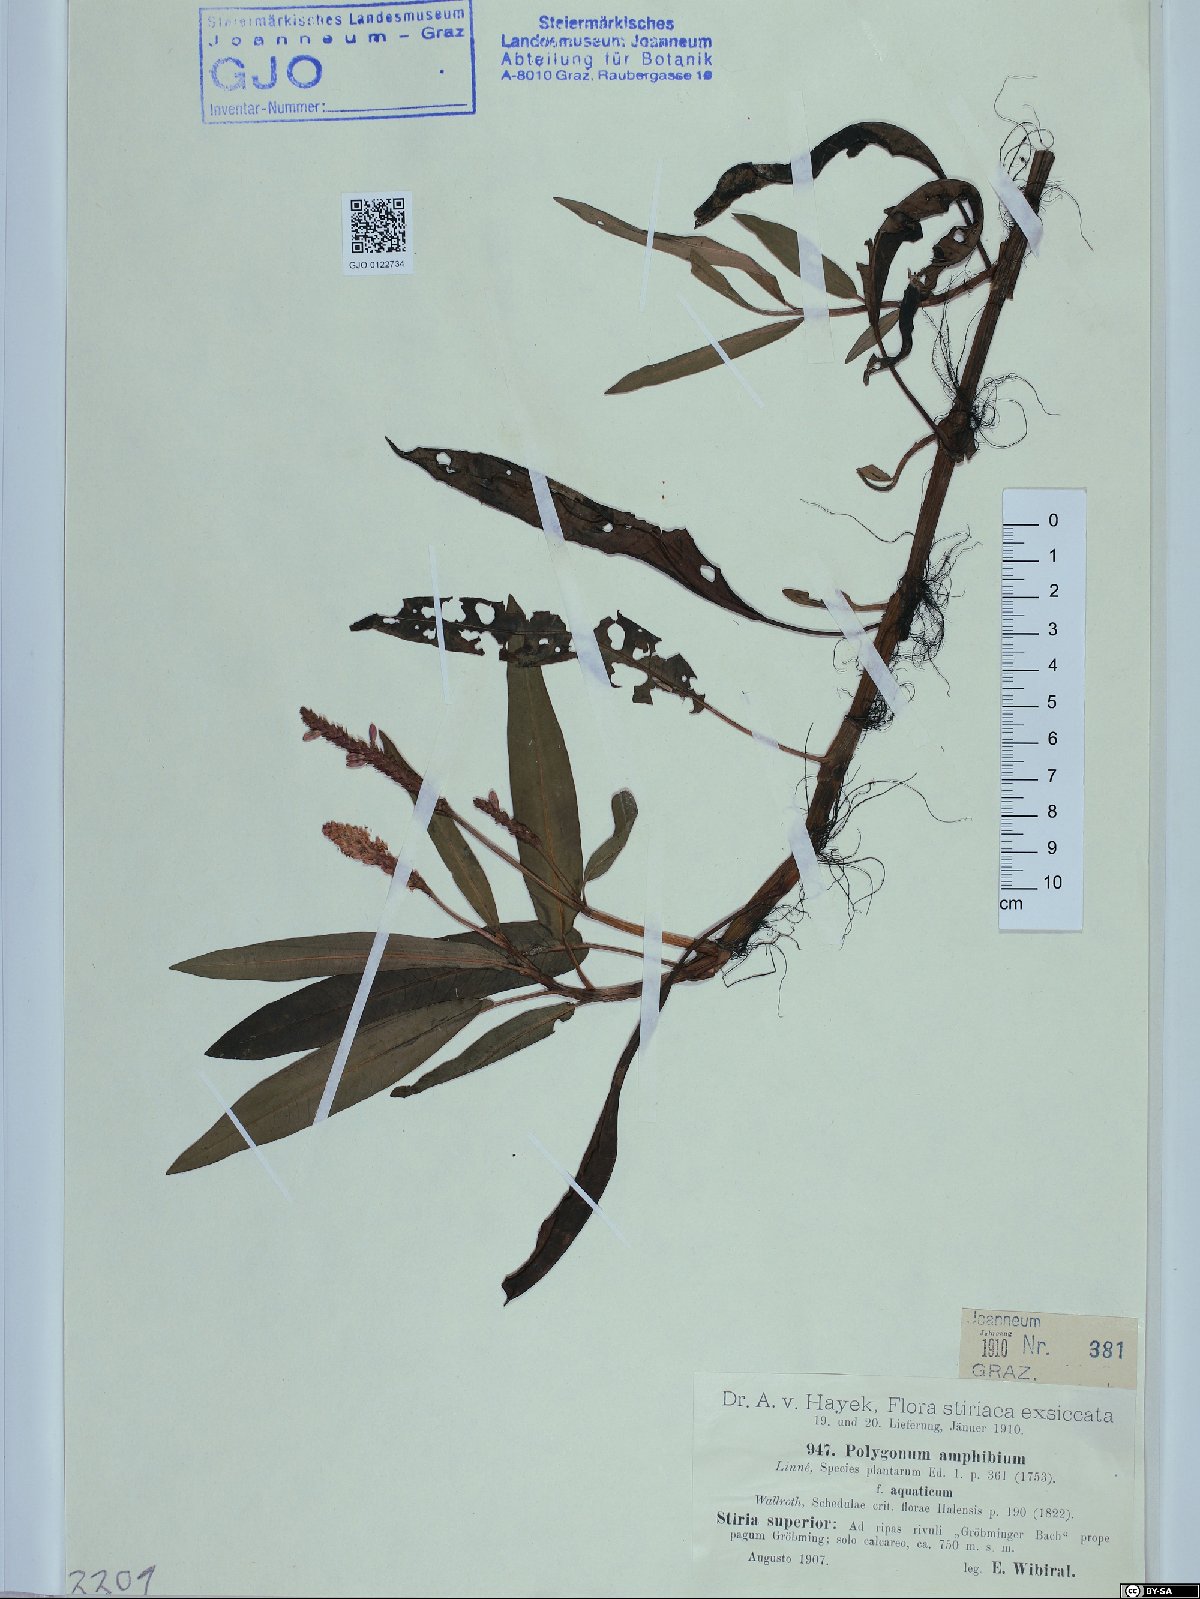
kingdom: Plantae
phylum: Tracheophyta
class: Magnoliopsida
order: Caryophyllales
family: Polygonaceae
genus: Persicaria
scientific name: Persicaria amphibia
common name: Amphibious bistort
